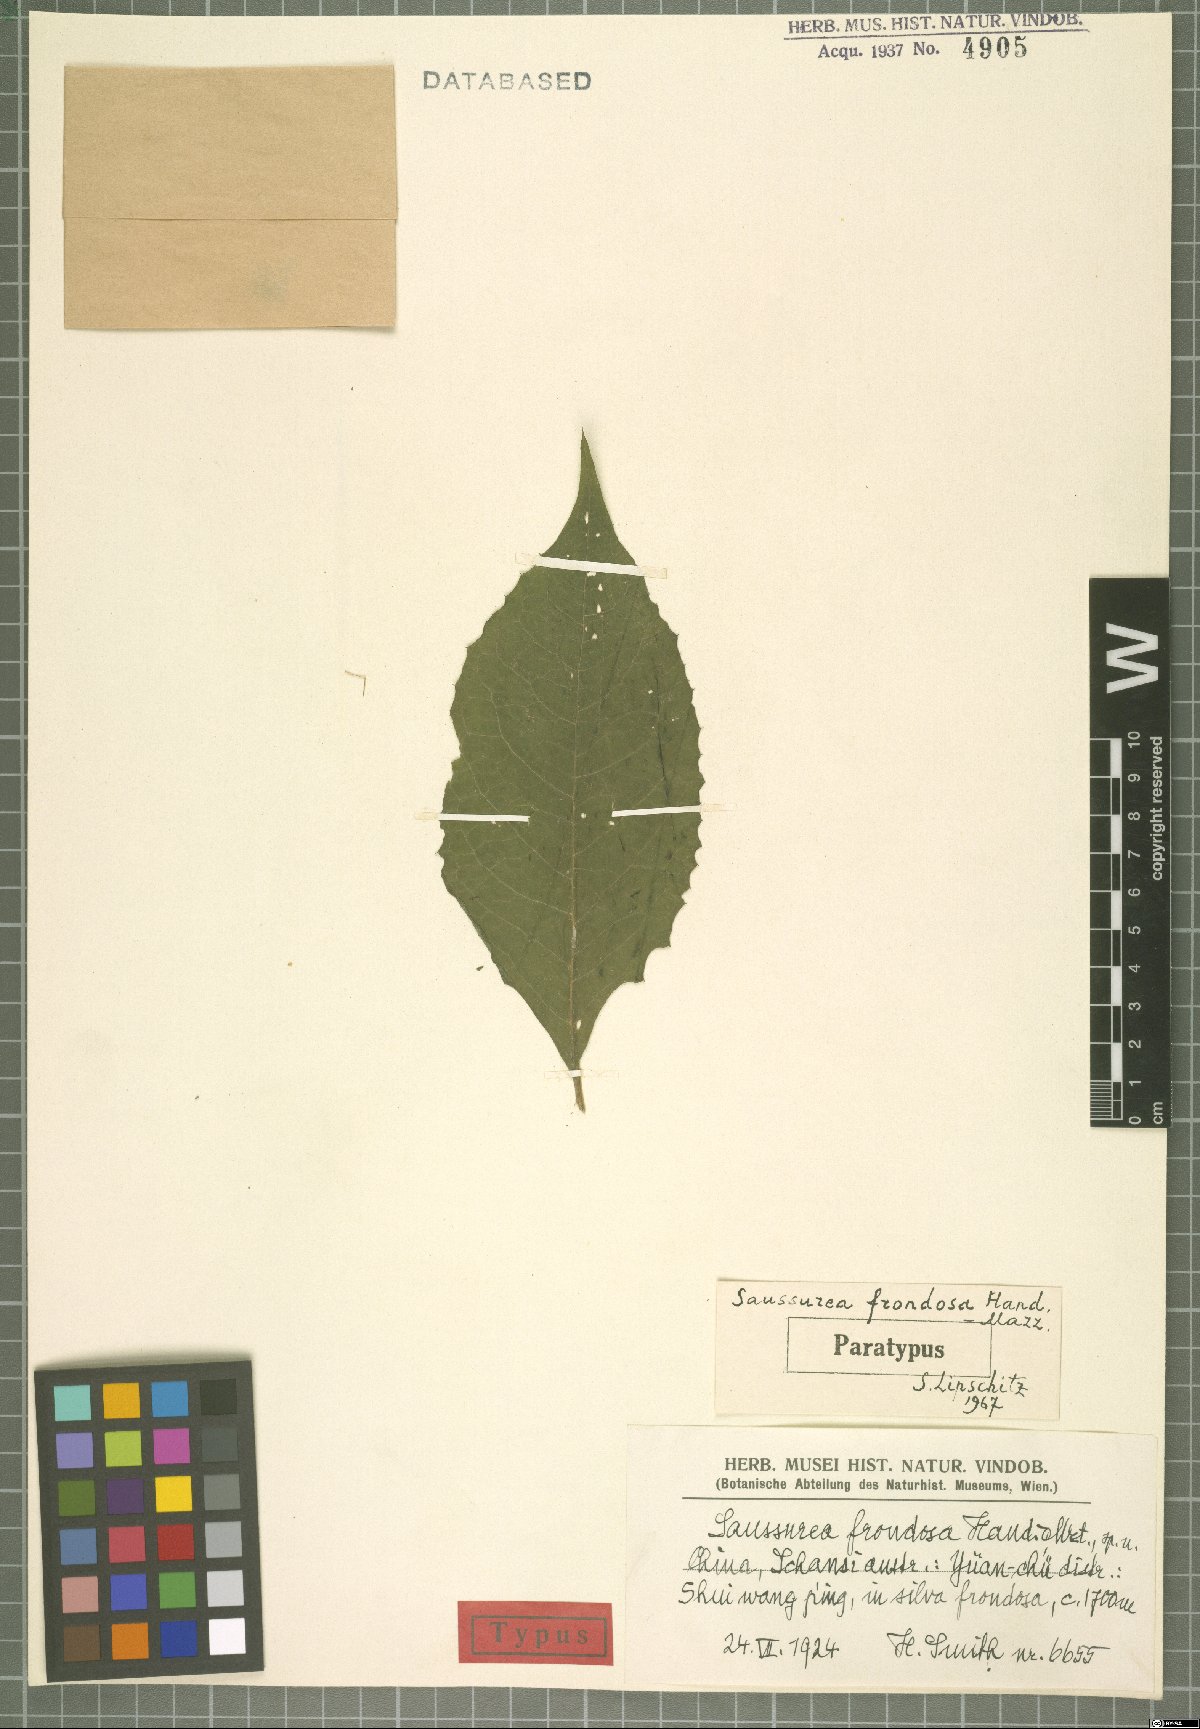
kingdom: Plantae
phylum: Tracheophyta
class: Magnoliopsida
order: Asterales
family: Asteraceae
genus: Saussurea
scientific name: Saussurea frondosa
